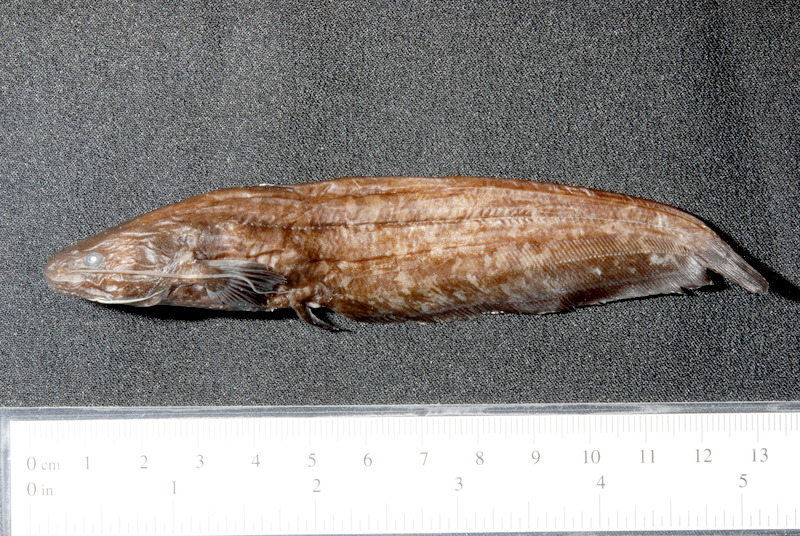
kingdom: Animalia
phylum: Chordata
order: Siluriformes
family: Siluridae
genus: Silurus
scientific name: Silurus glanis
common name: Wels
